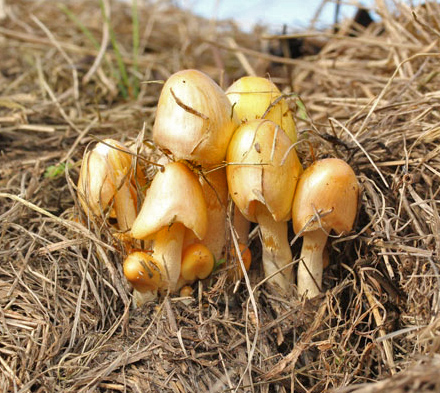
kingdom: Fungi
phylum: Basidiomycota
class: Agaricomycetes
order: Agaricales
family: Bolbitiaceae
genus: Bolbitius
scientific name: Bolbitius titubans
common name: almindelig gulhat
